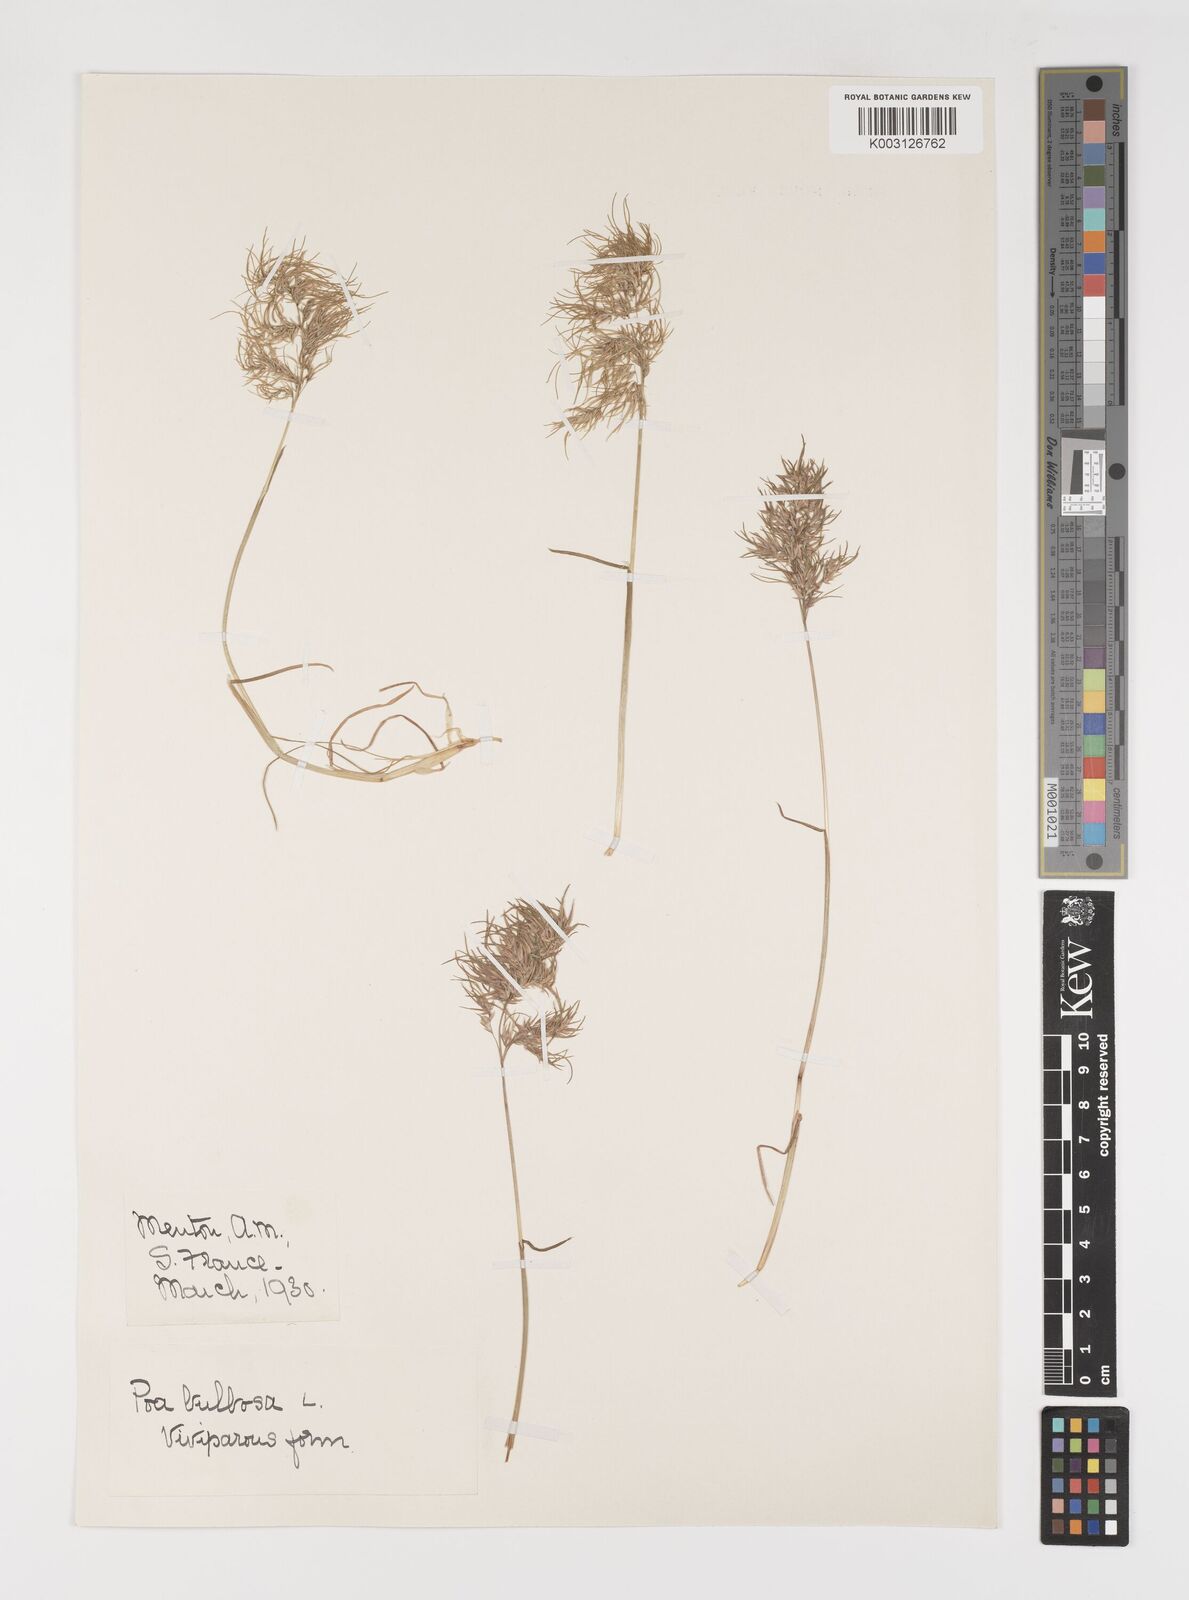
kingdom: Plantae
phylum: Tracheophyta
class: Liliopsida
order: Poales
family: Poaceae
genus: Poa
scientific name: Poa bulbosa
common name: Bulbous bluegrass
